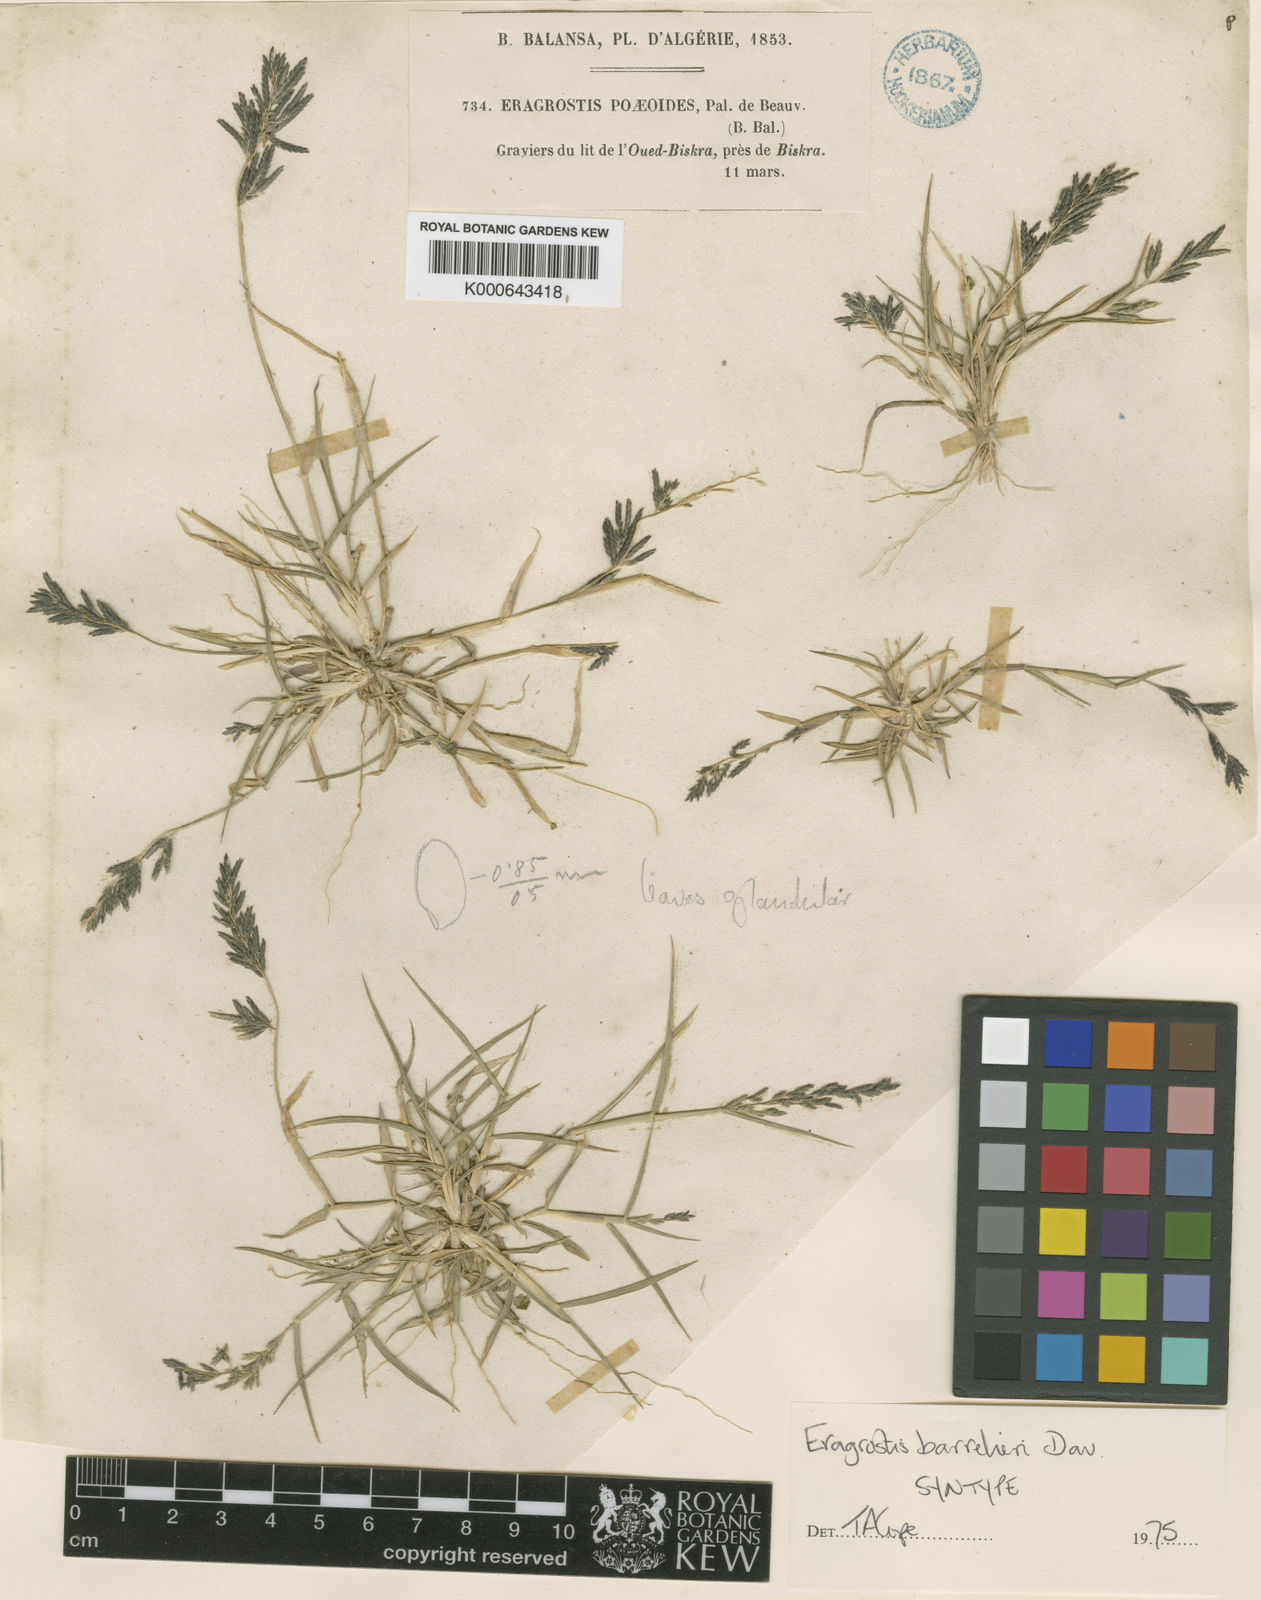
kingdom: Plantae
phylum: Tracheophyta
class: Liliopsida
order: Poales
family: Poaceae
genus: Eragrostis
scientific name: Eragrostis barrelieri
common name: Mediterranean lovegrass
